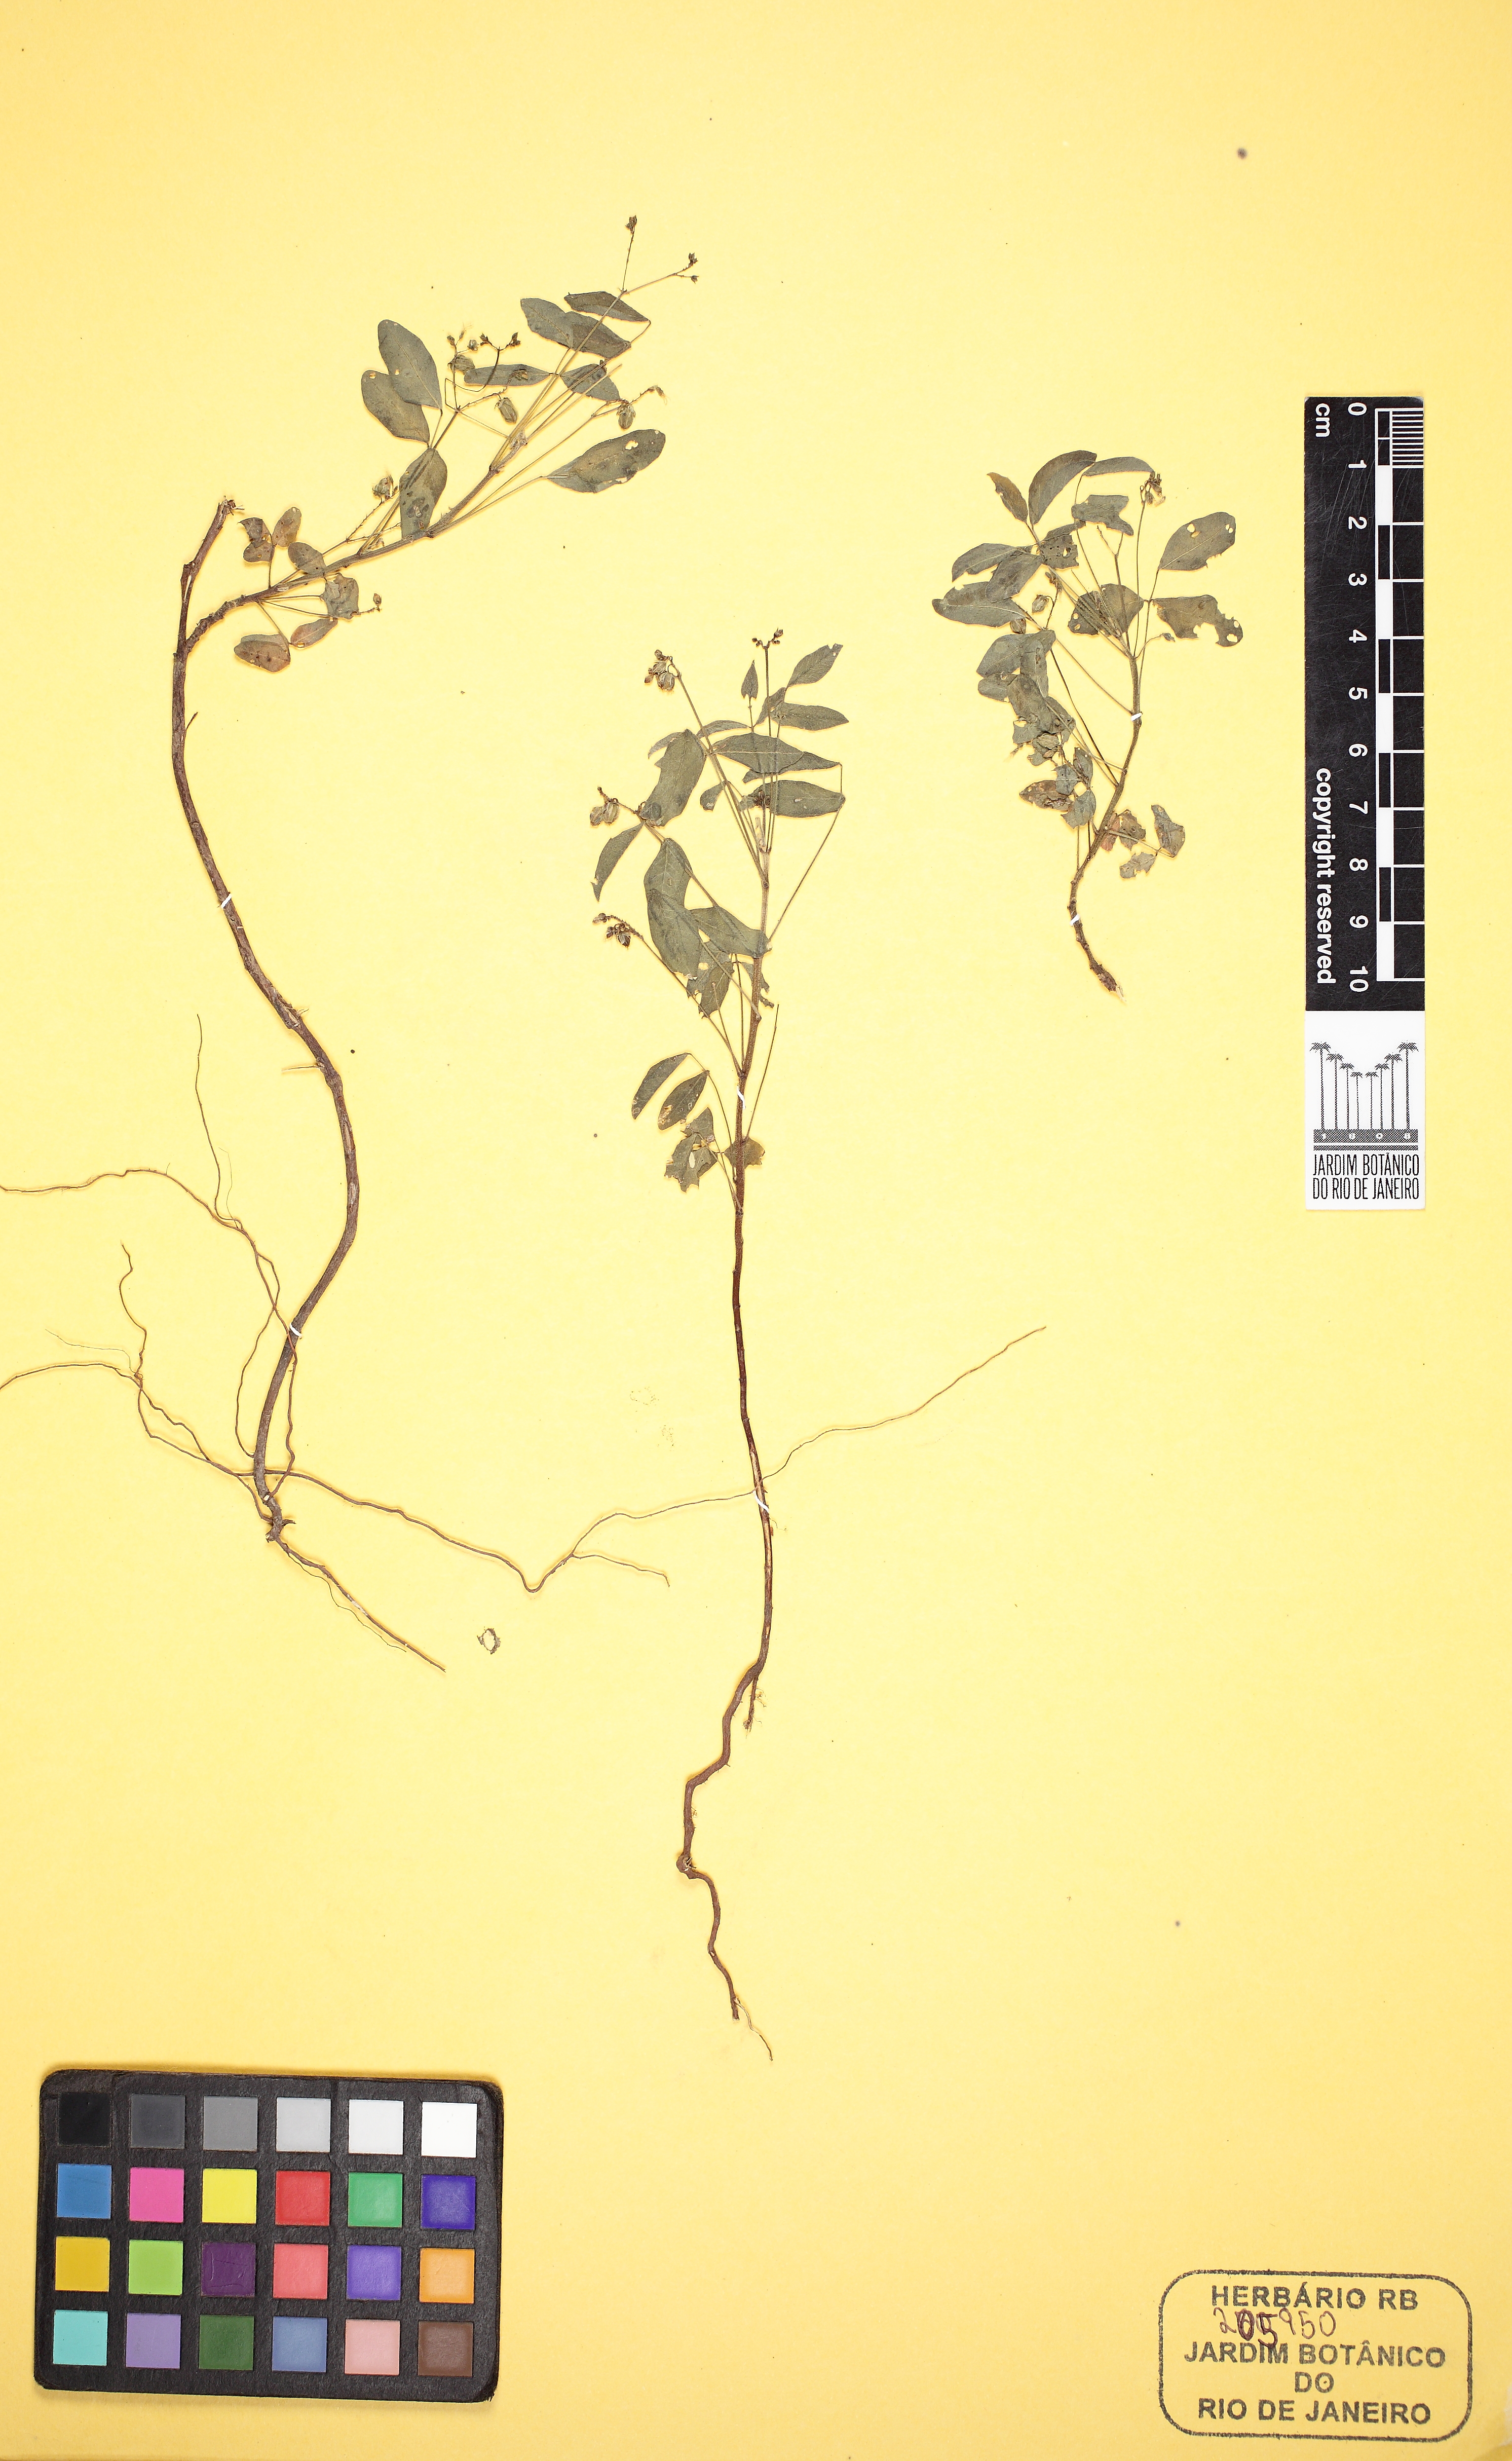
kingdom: Plantae
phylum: Tracheophyta
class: Magnoliopsida
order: Asterales
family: Asteraceae
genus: Eclipta
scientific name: Eclipta prostrata
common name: False daisy
